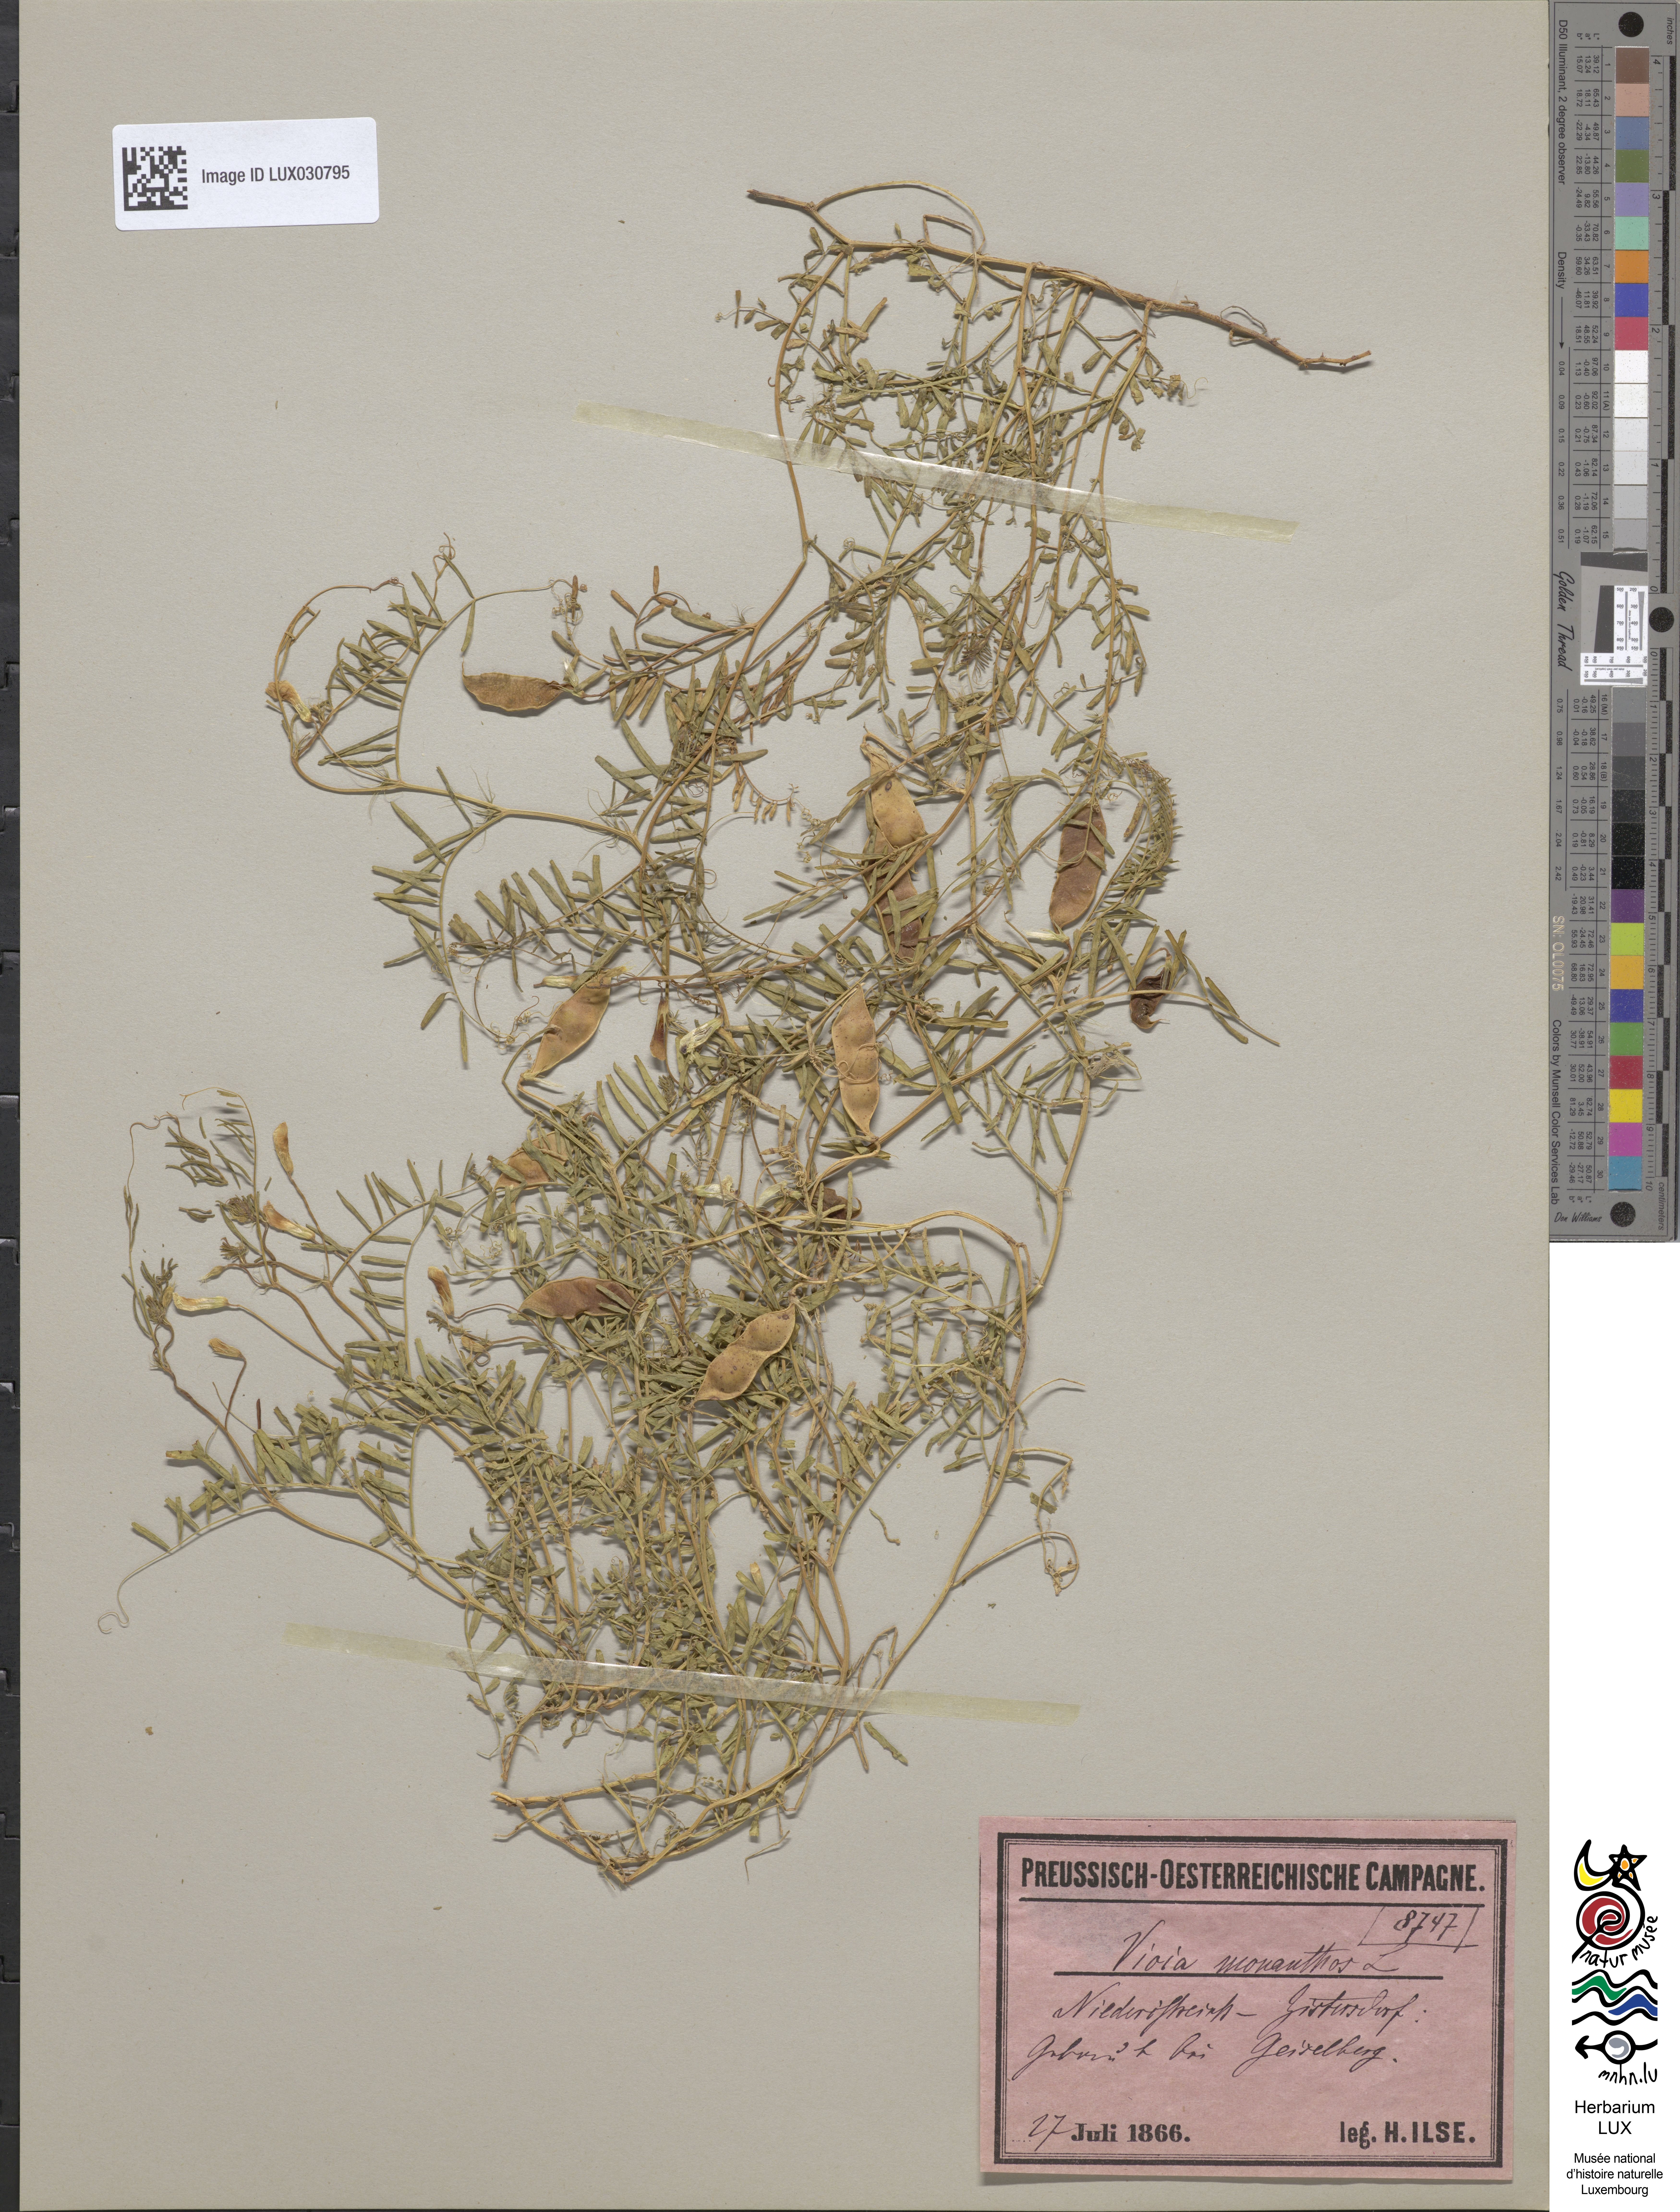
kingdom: Plantae
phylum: Tracheophyta
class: Magnoliopsida
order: Fabales
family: Fabaceae
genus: Vicia
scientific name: Vicia articulata
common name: Monantha vetch
